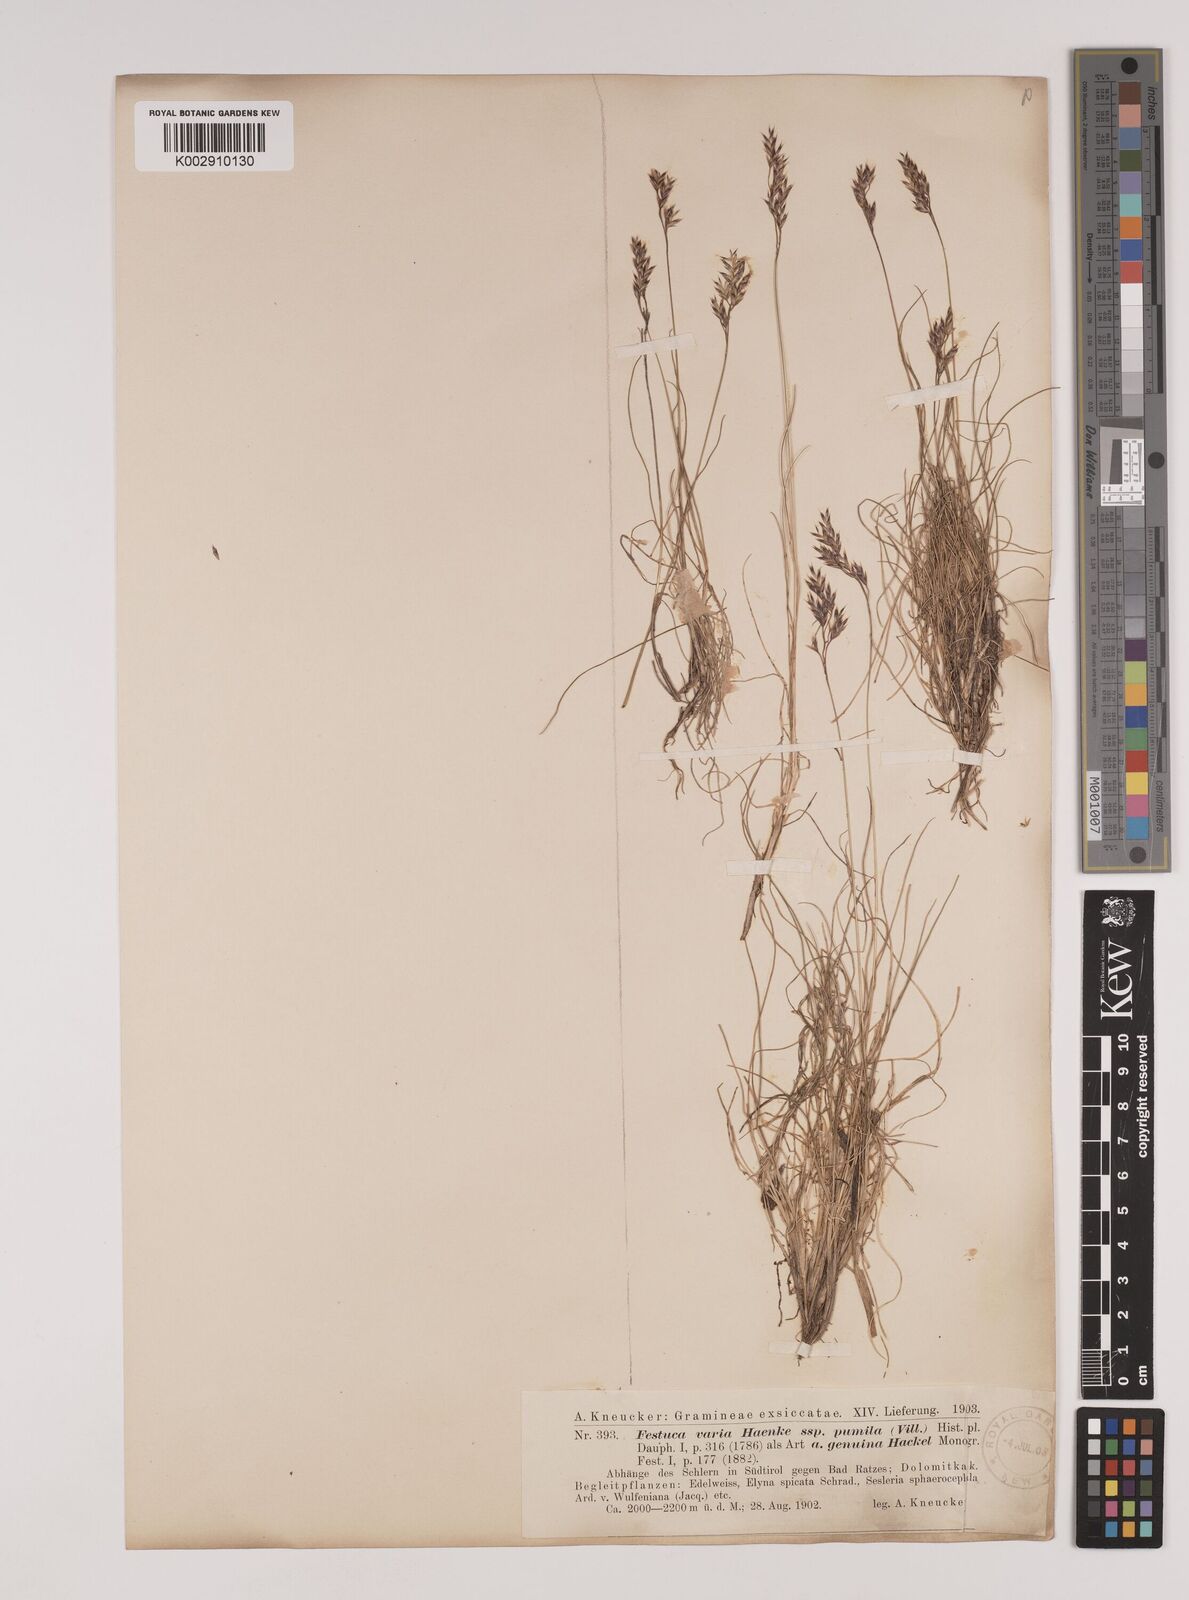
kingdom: Plantae
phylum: Tracheophyta
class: Liliopsida
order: Poales
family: Poaceae
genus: Festuca
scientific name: Festuca
